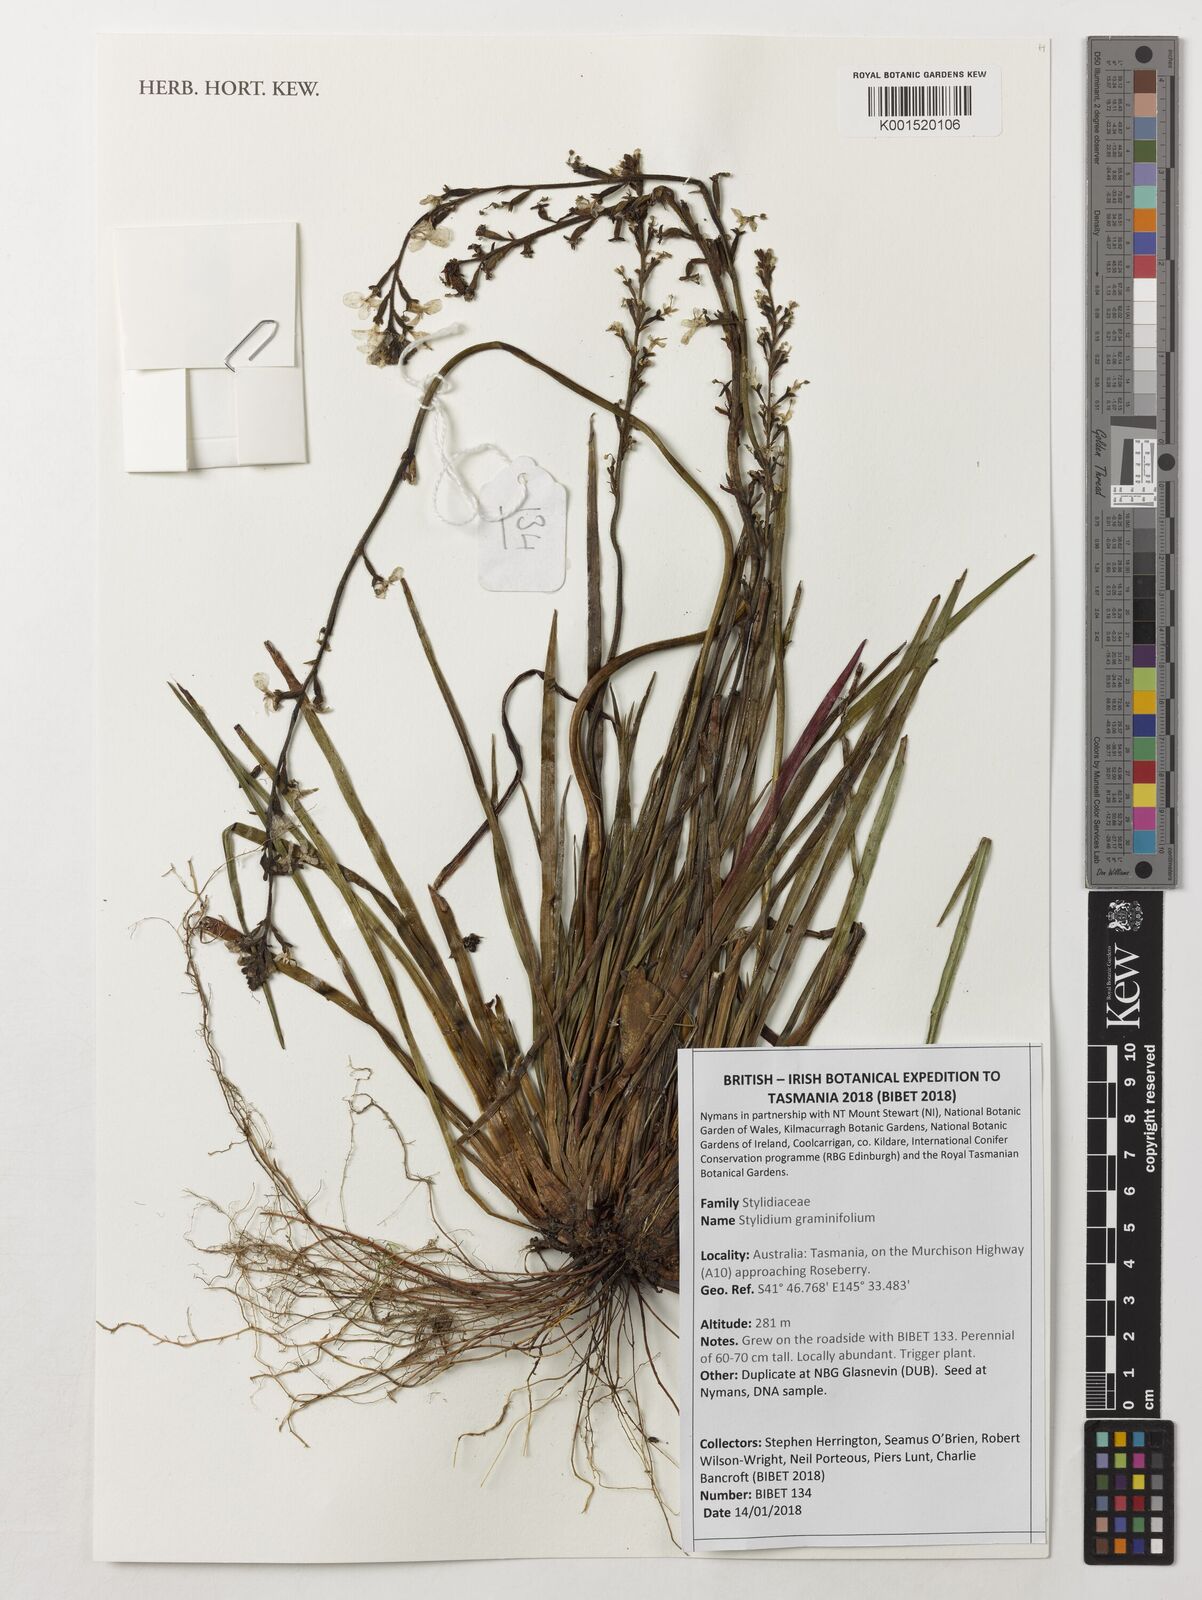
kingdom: Plantae
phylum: Tracheophyta
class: Magnoliopsida
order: Asterales
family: Stylidiaceae
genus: Stylidium
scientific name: Stylidium graminifolium
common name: Grass triggerplant
